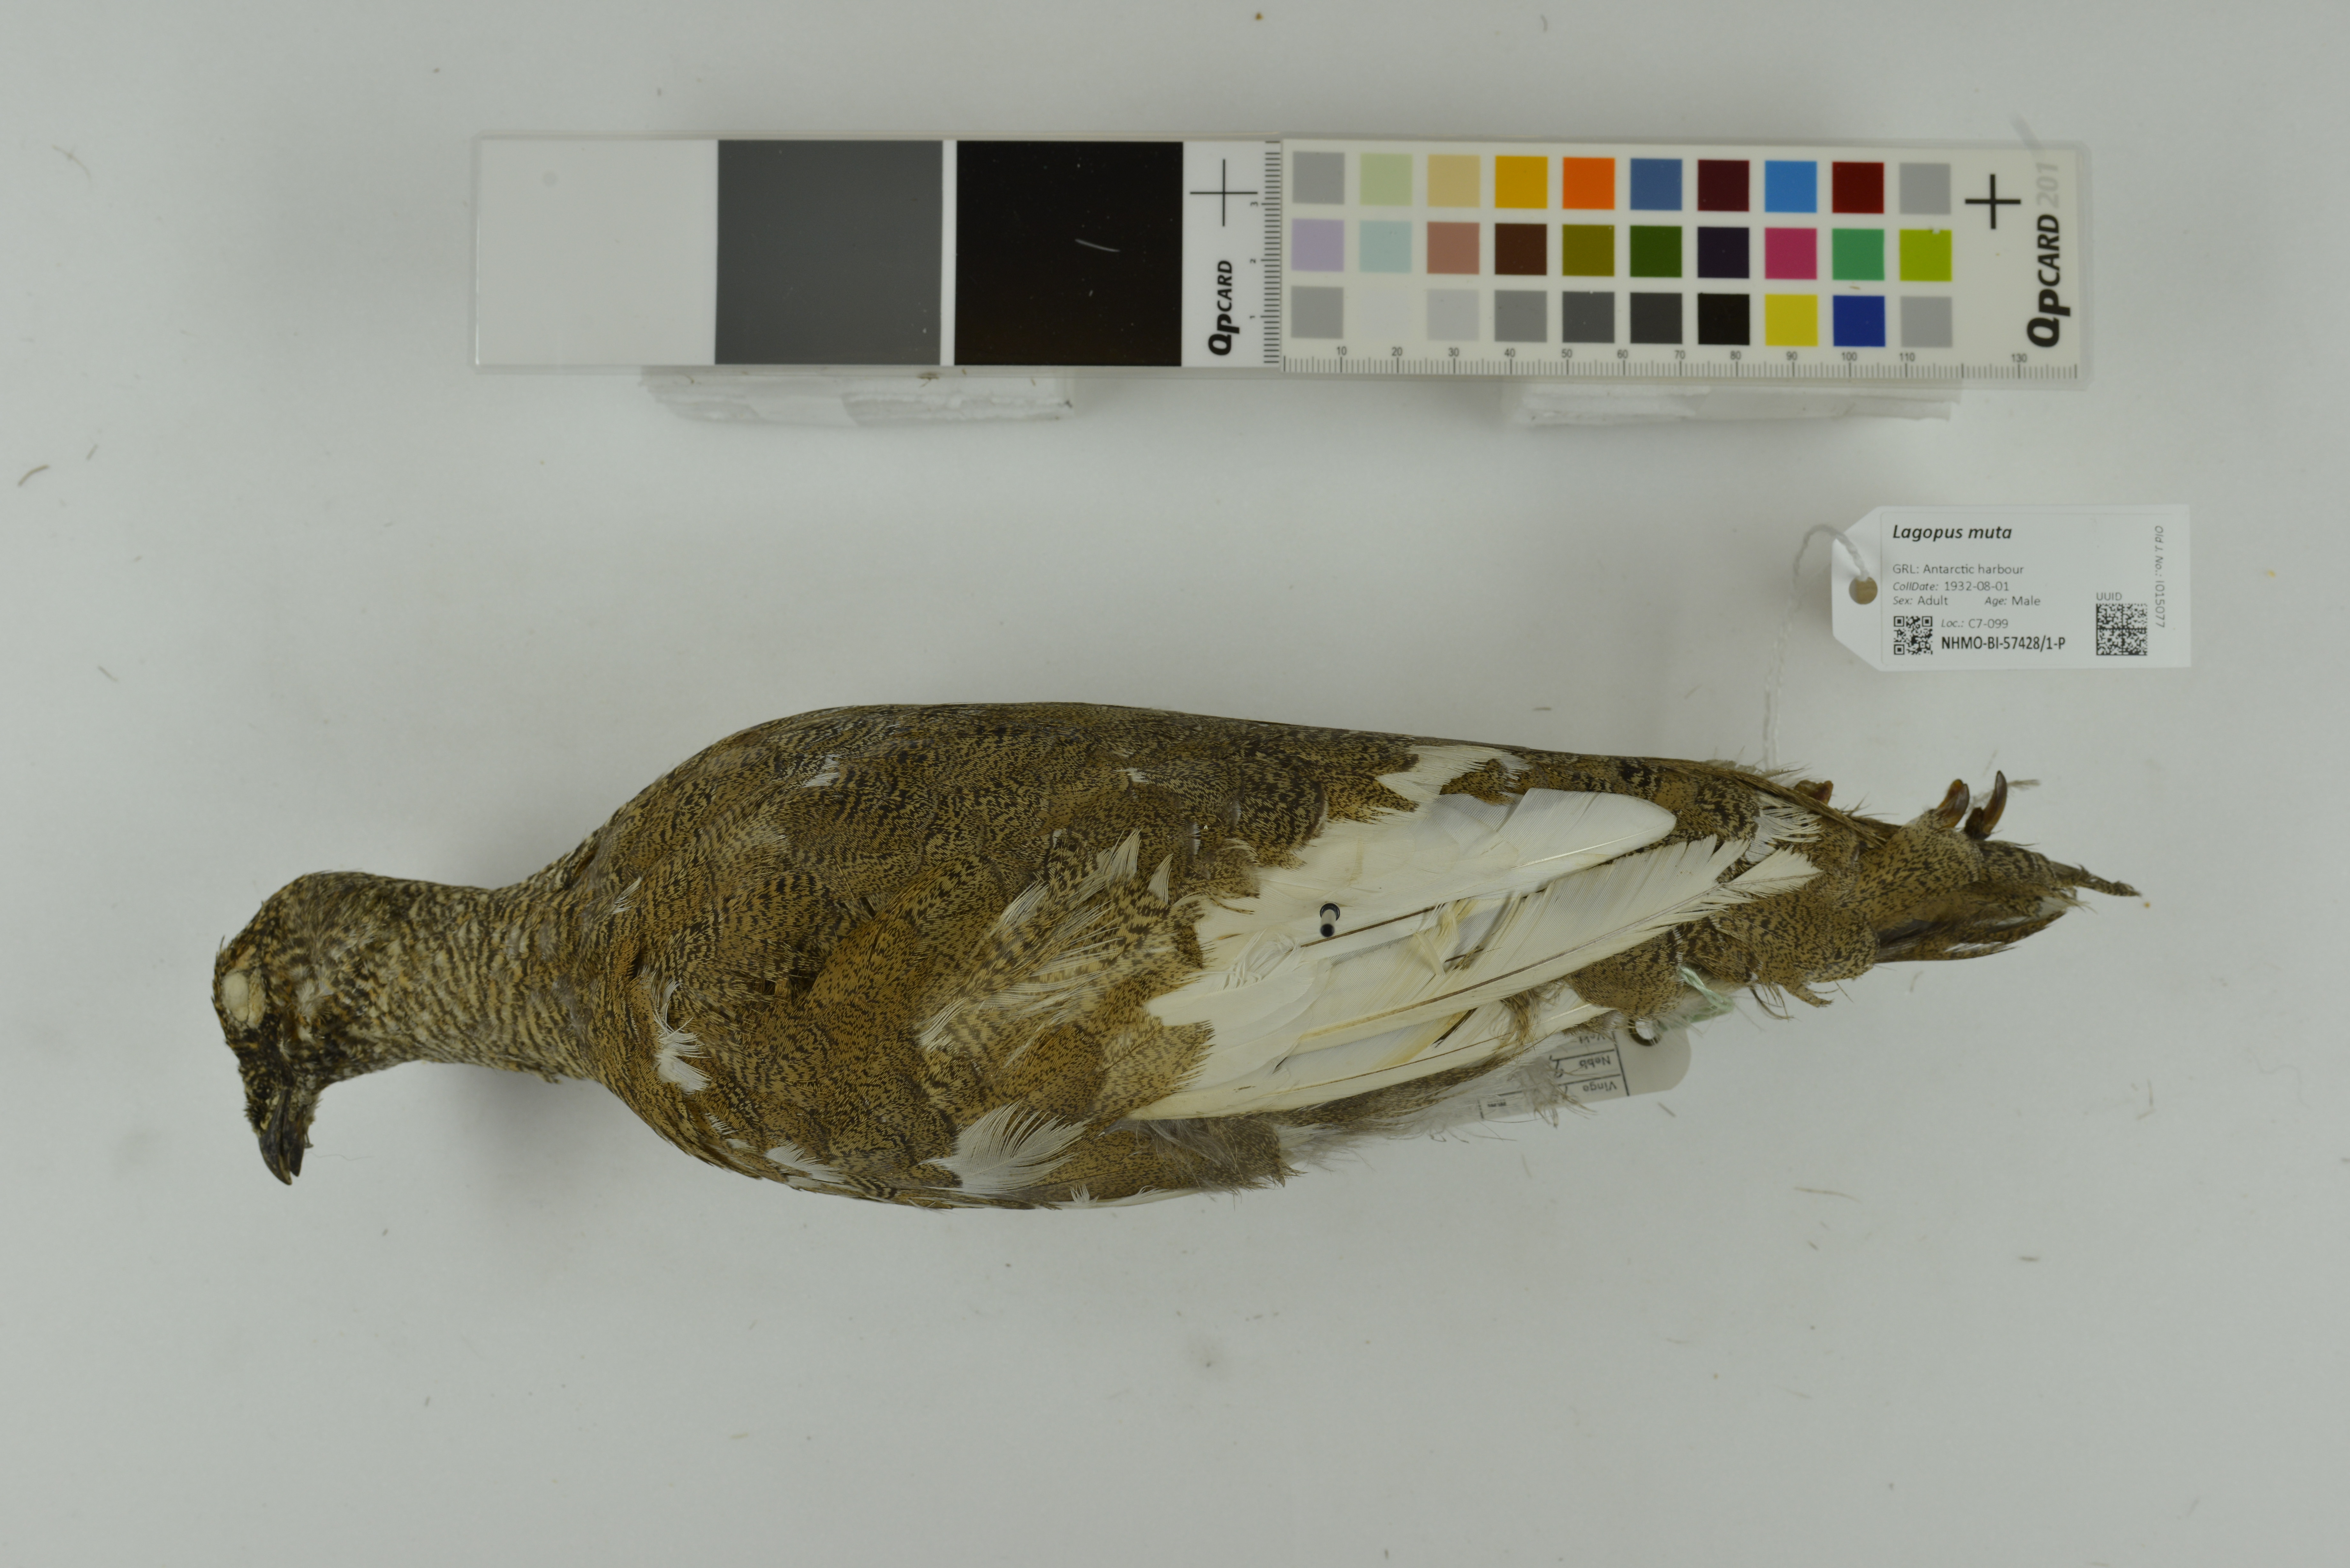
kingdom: Animalia
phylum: Chordata
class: Aves
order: Galliformes
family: Phasianidae
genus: Lagopus
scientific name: Lagopus muta
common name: Rock ptarmigan
